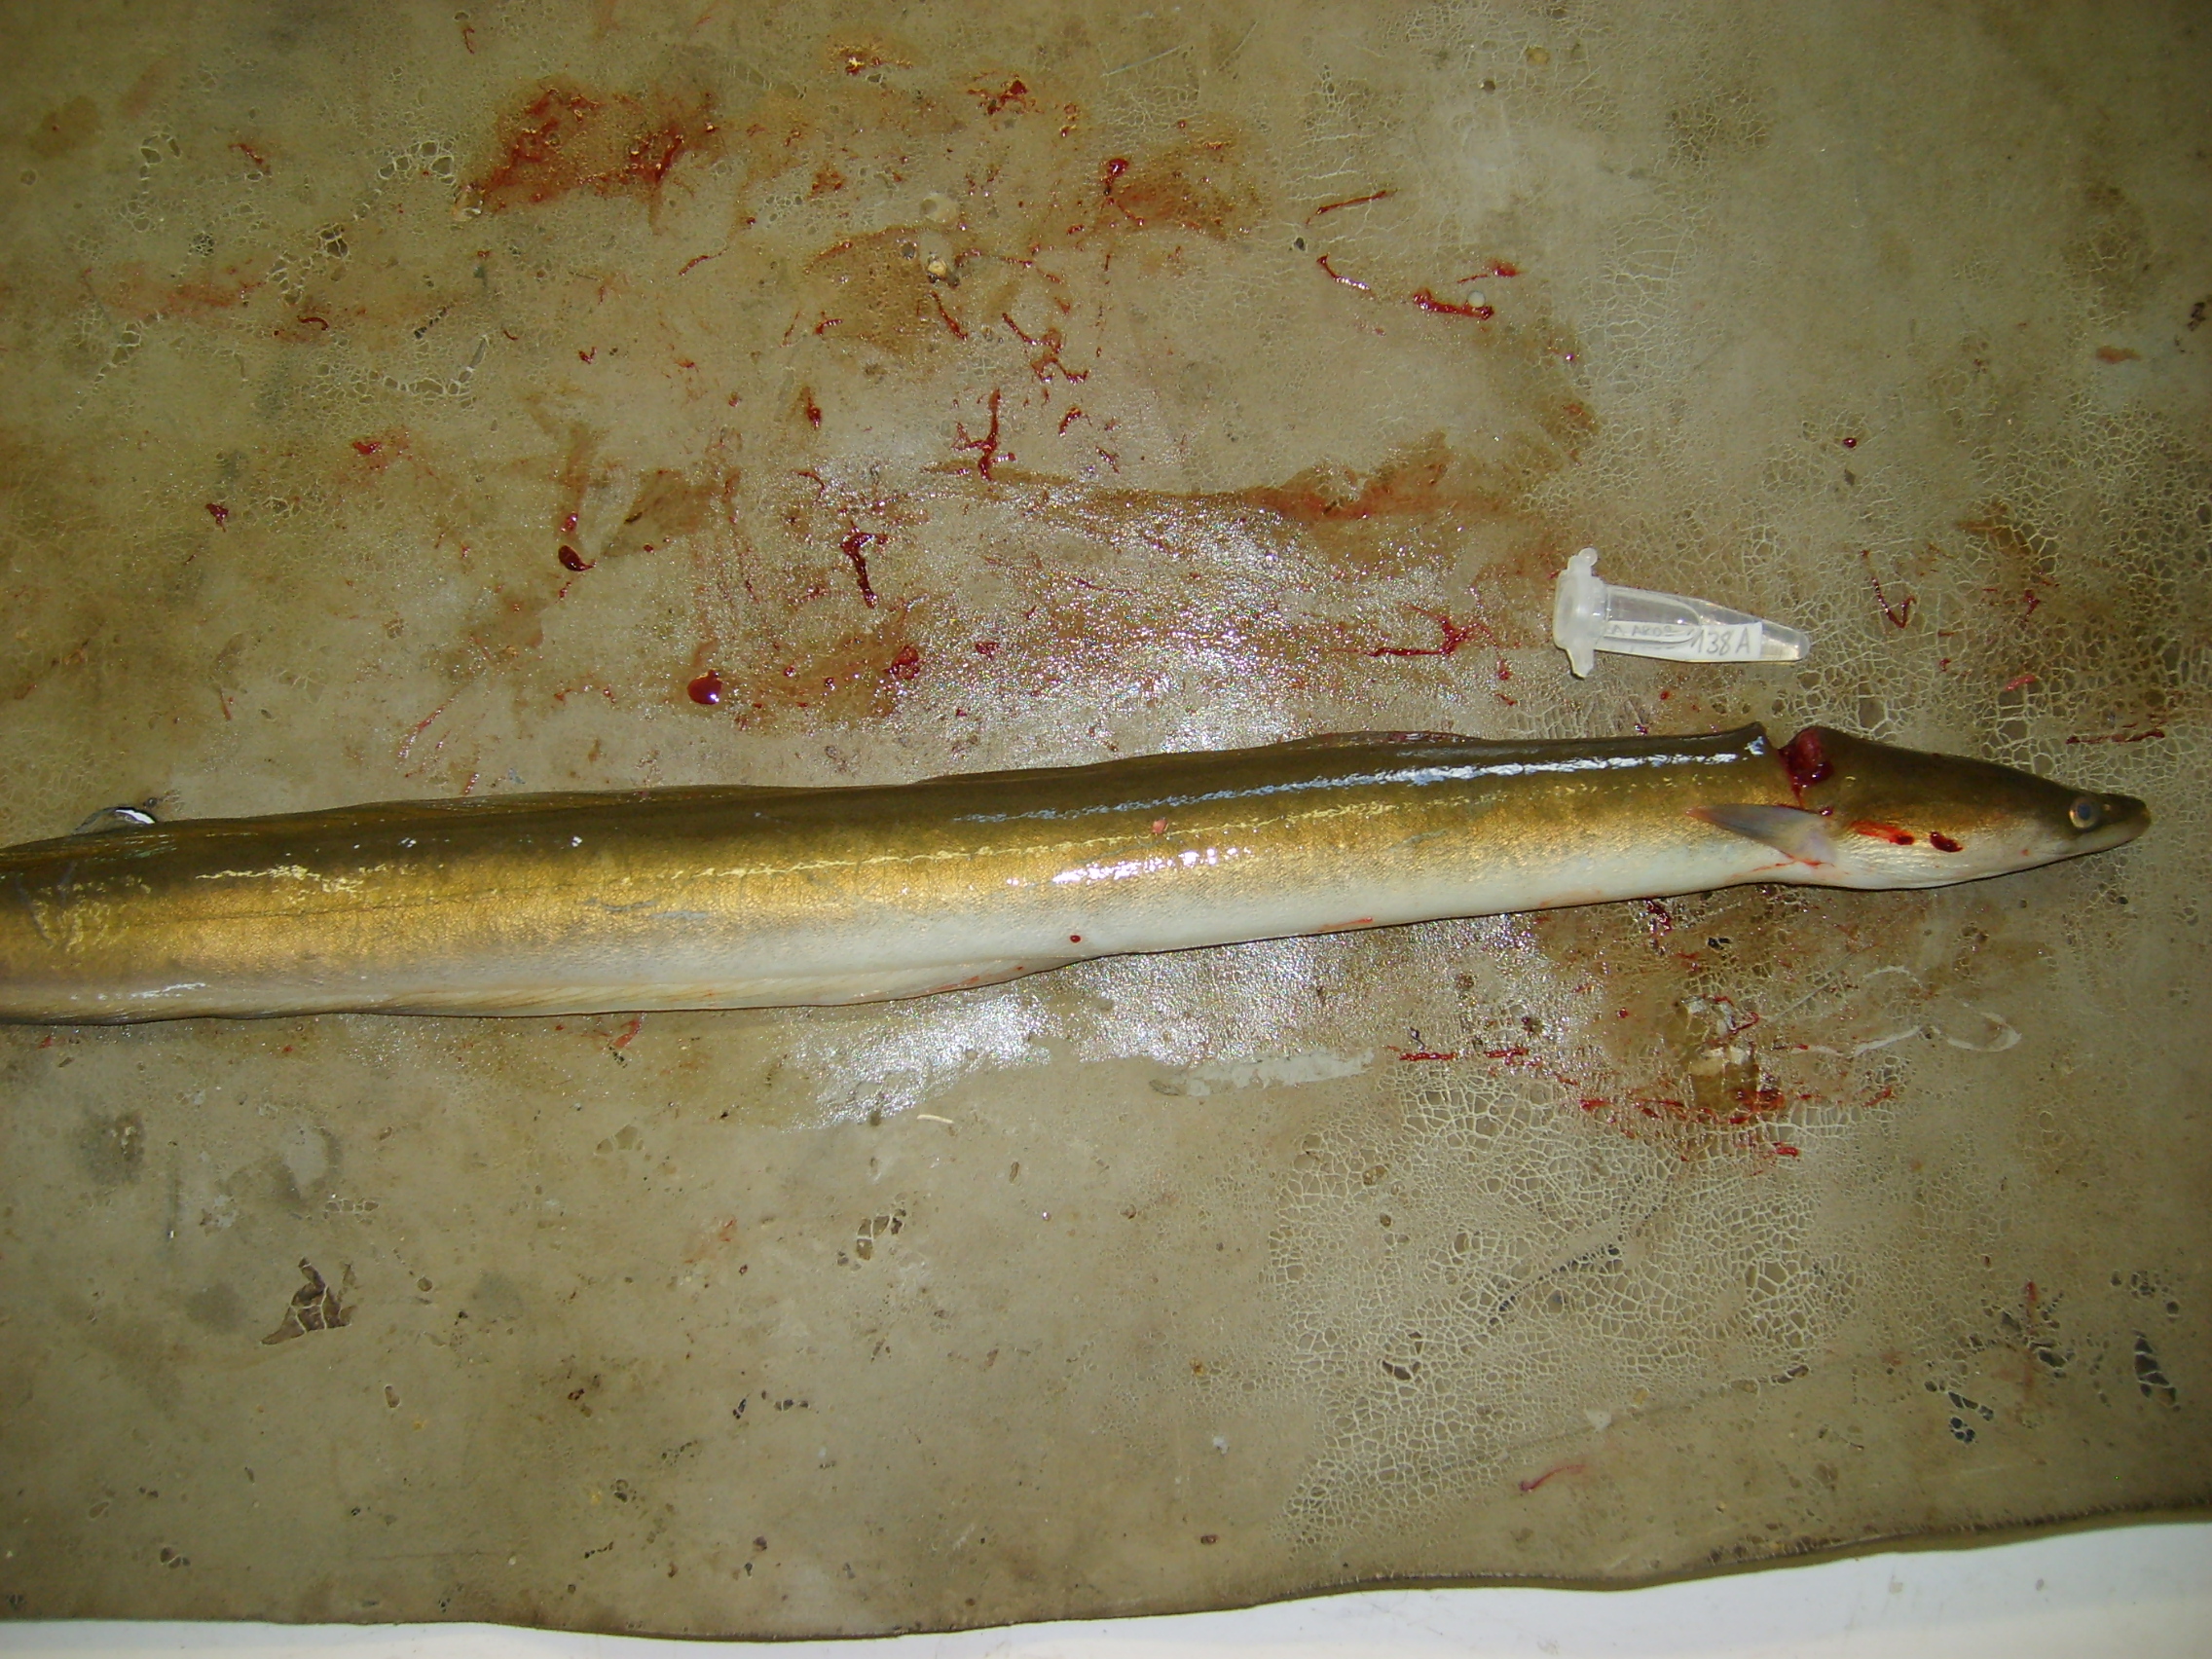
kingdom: Animalia
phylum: Chordata
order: Anguilliformes
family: Anguillidae
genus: Anguilla
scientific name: Anguilla mossambica
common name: African longfin eel
